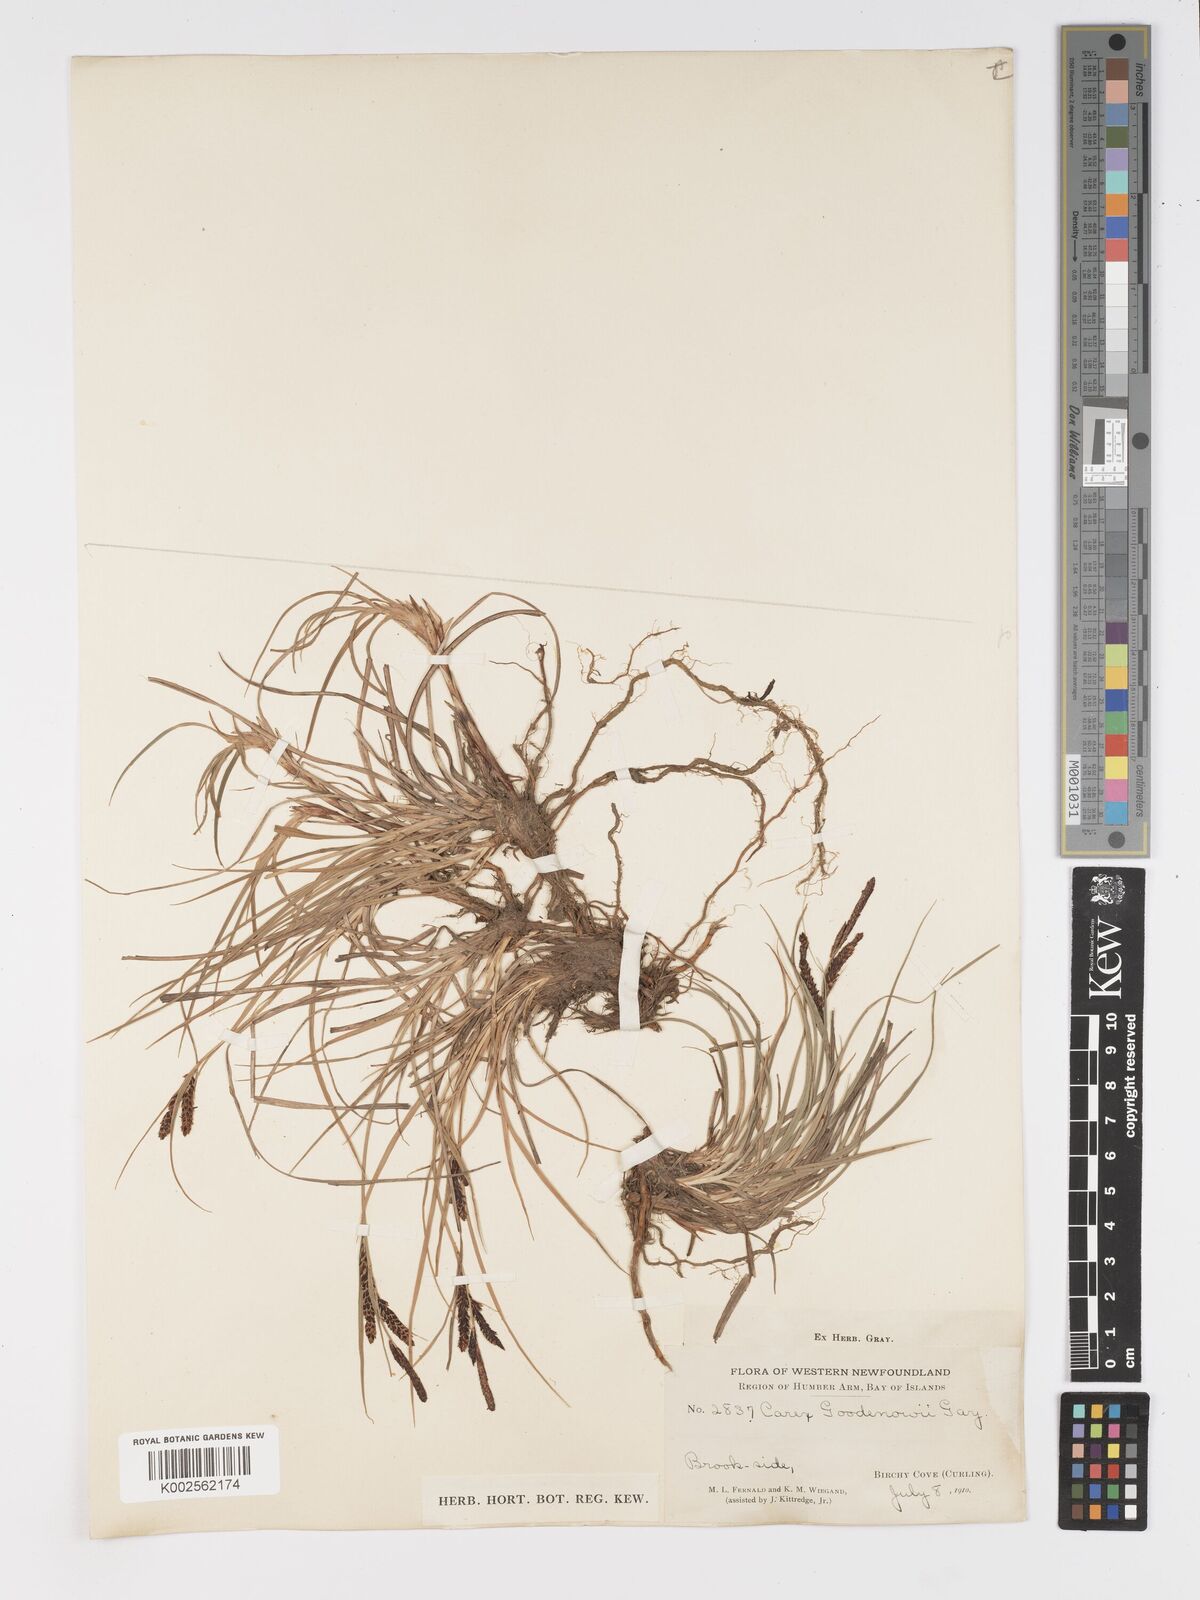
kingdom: Plantae
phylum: Tracheophyta
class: Liliopsida
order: Poales
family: Cyperaceae
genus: Carex
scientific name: Carex nigra
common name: Common sedge
